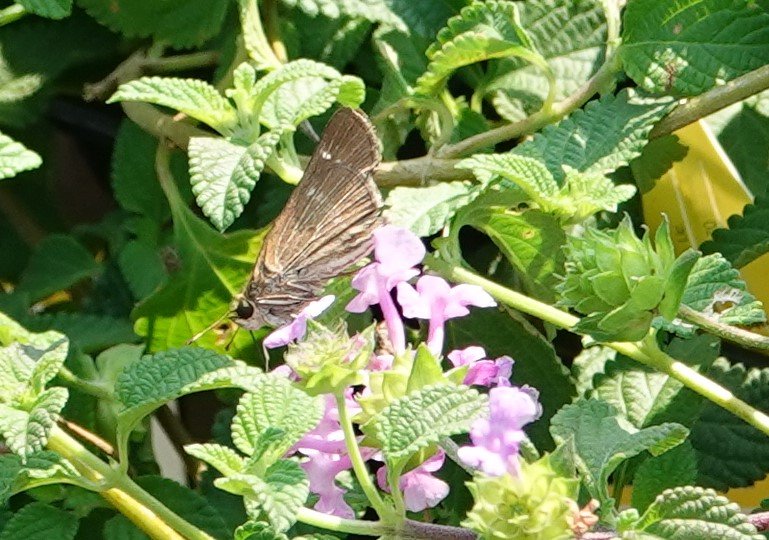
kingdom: Animalia
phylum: Arthropoda
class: Insecta
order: Lepidoptera
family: Hesperiidae
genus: Panoquina
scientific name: Panoquina ocola
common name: Ocola Skipper
